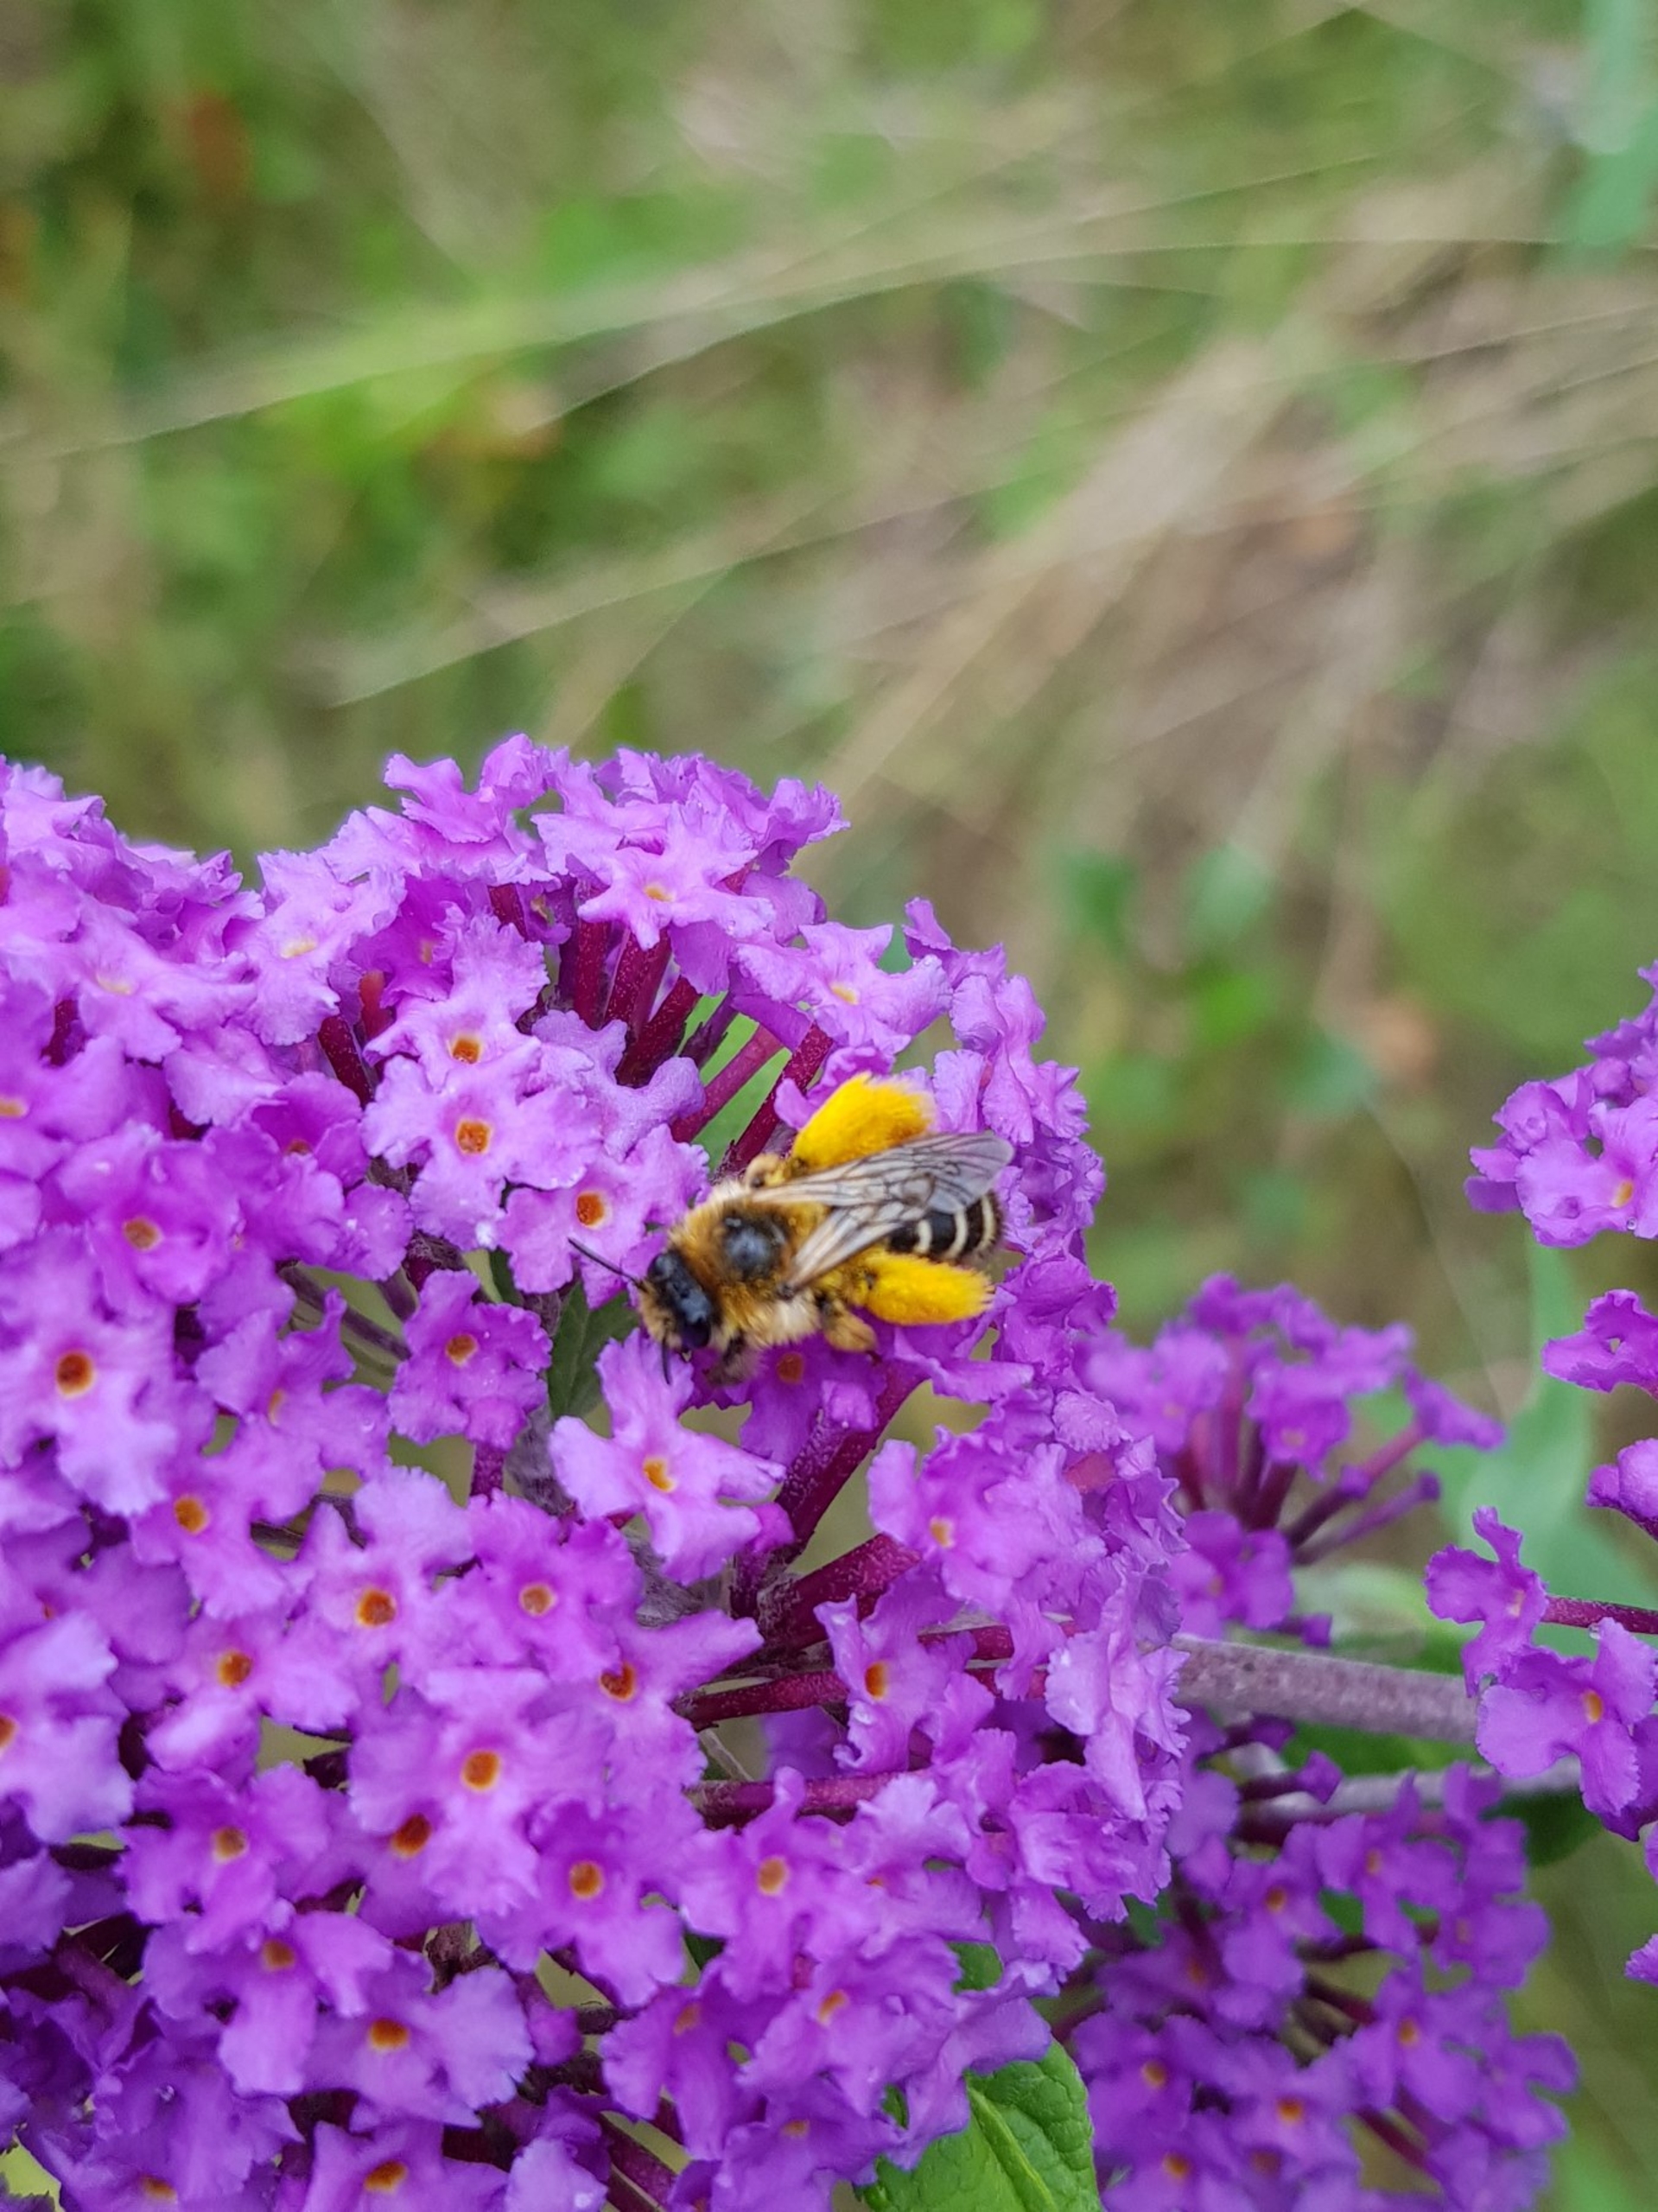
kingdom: Animalia
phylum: Arthropoda
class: Insecta
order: Hymenoptera
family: Melittidae
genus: Dasypoda
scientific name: Dasypoda hirtipes
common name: Pragtbuksebi
